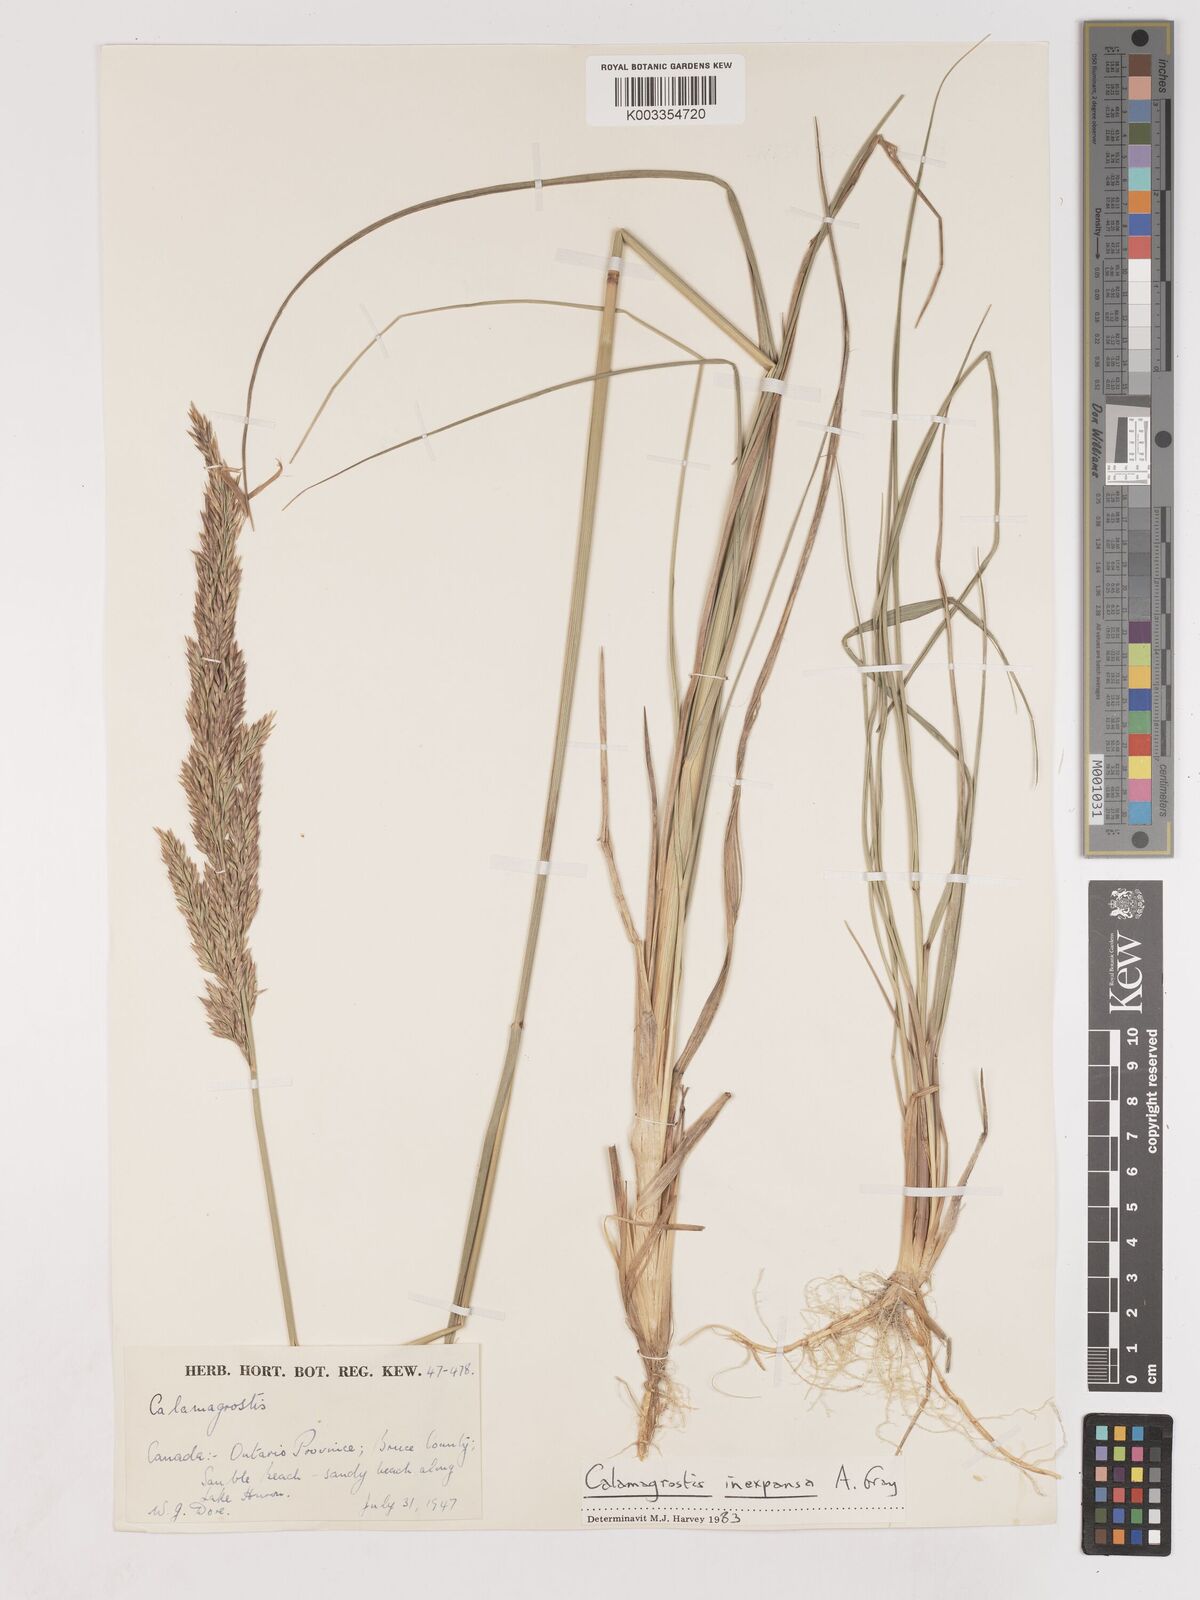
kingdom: Plantae
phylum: Tracheophyta
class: Liliopsida
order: Poales
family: Poaceae
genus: Cinnagrostis
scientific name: Cinnagrostis recta
